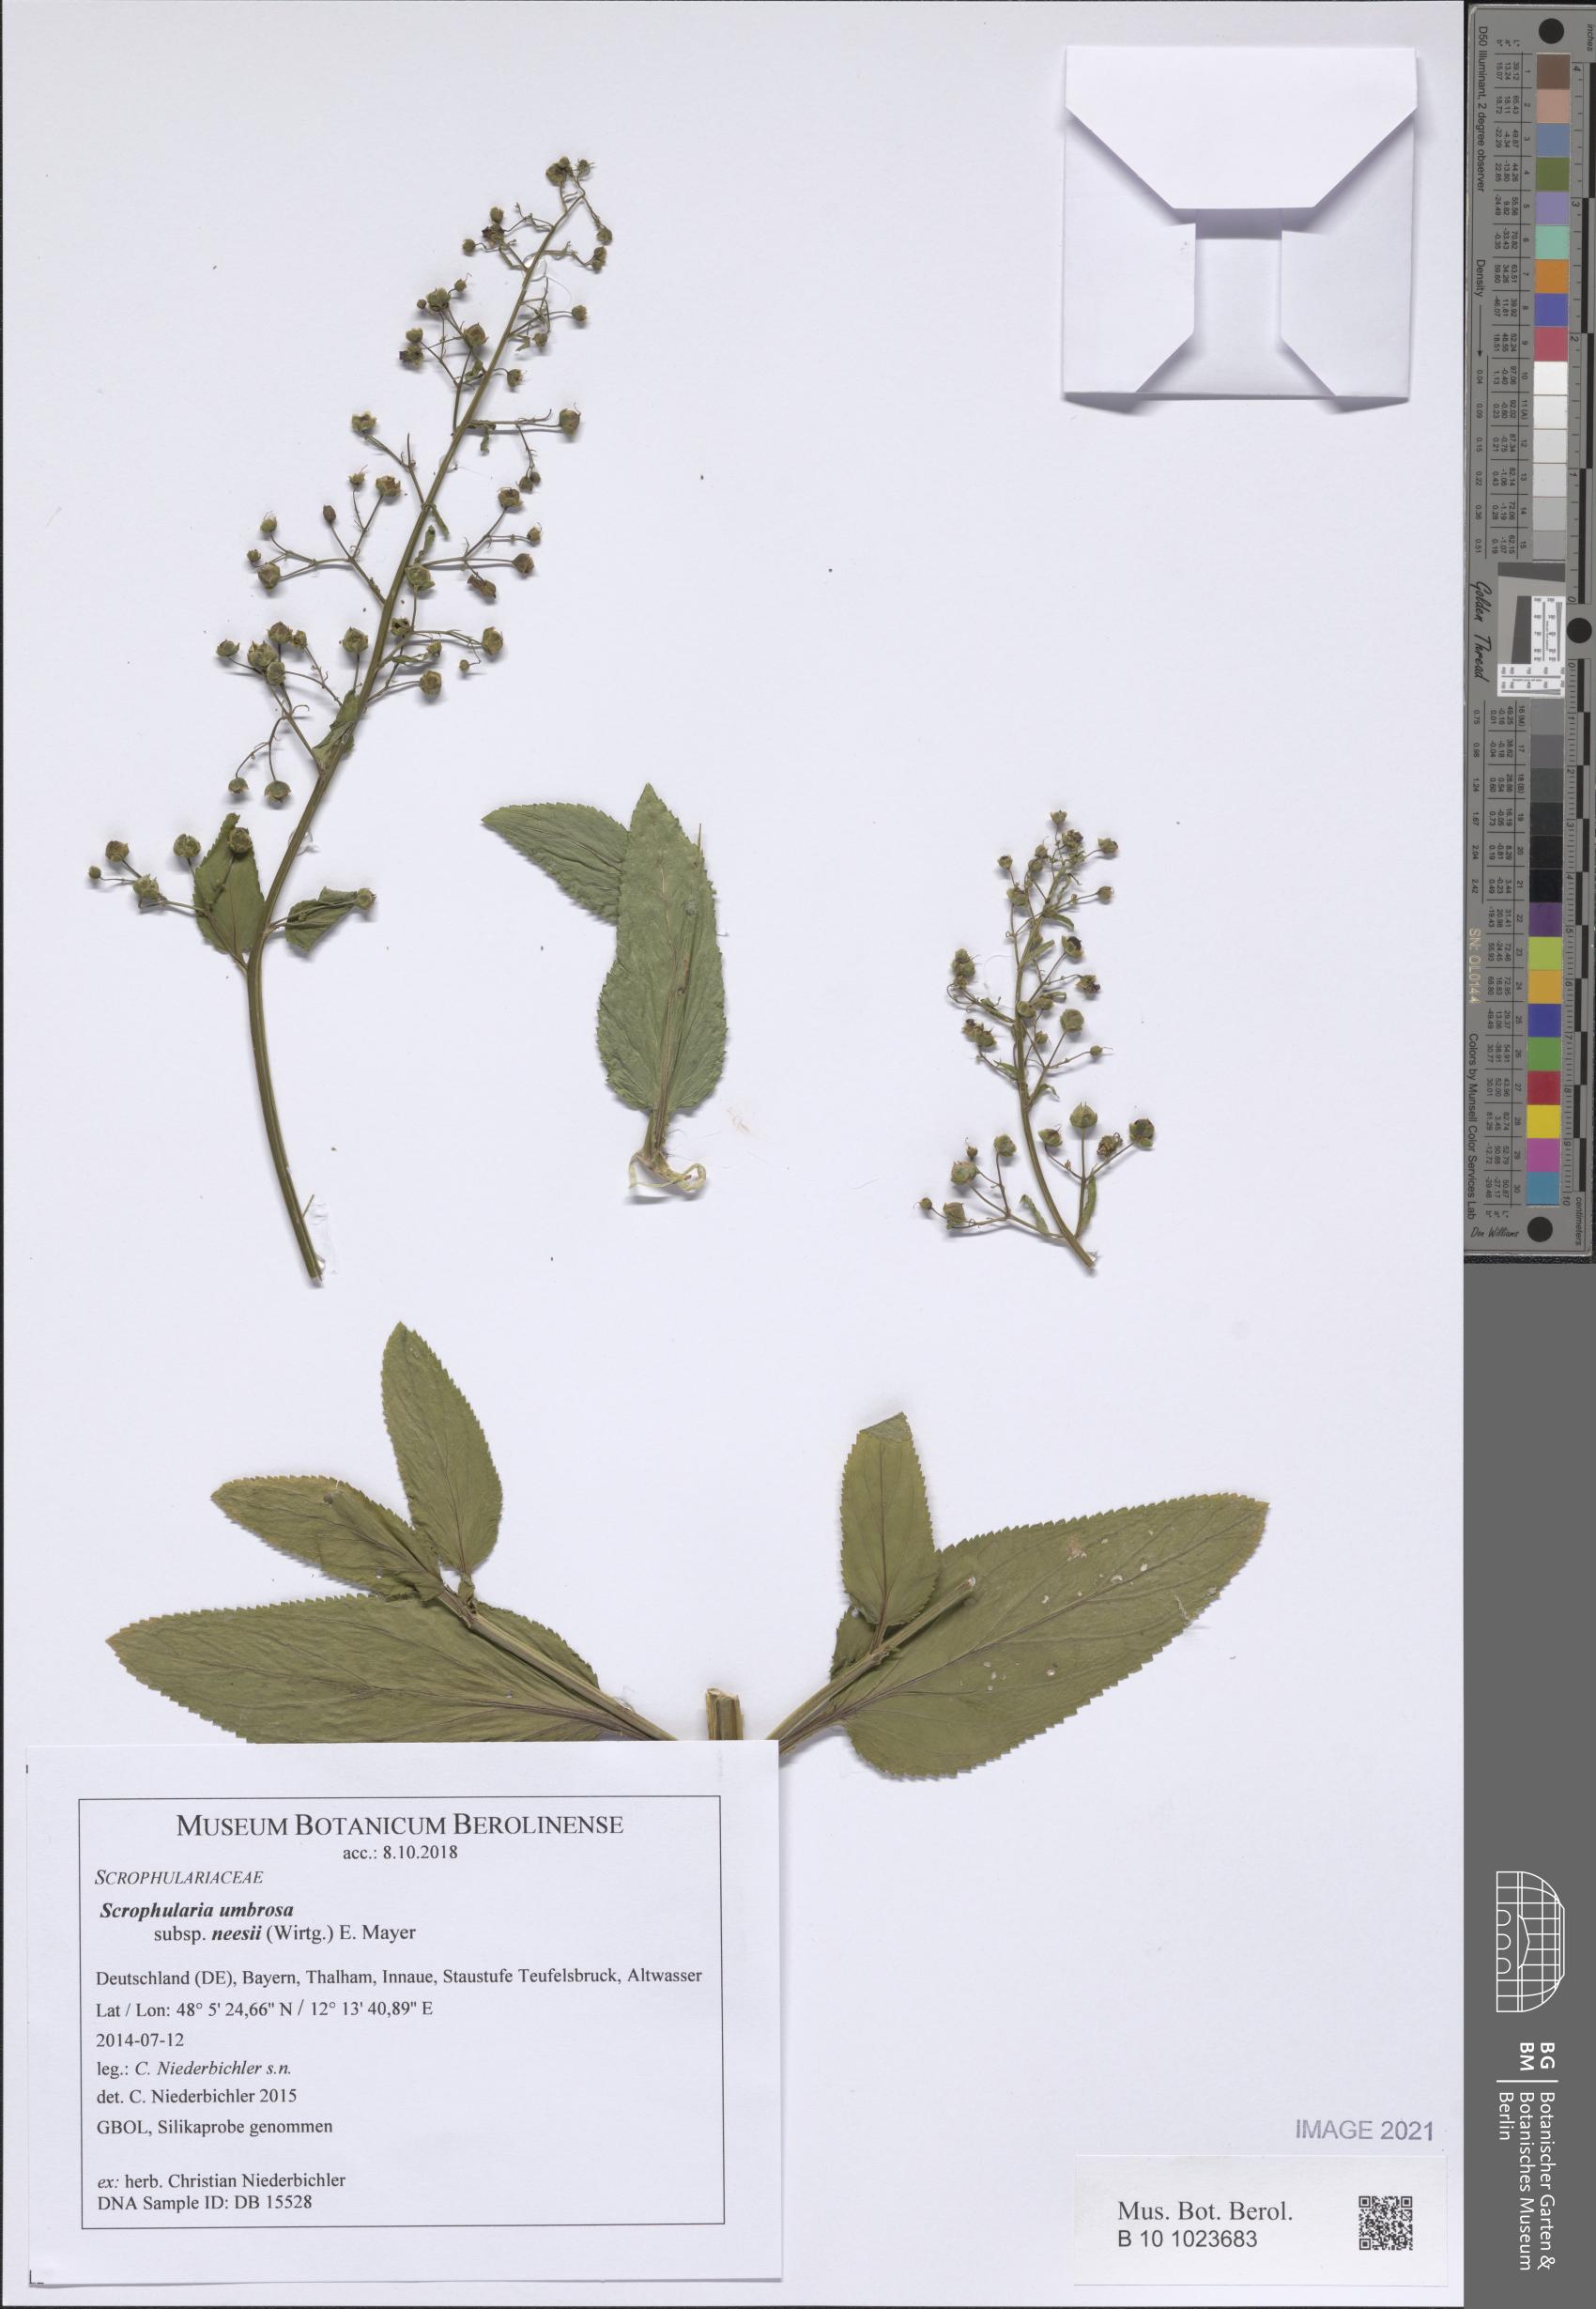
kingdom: Plantae
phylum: Tracheophyta
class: Magnoliopsida
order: Lamiales
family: Scrophulariaceae
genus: Scrophularia
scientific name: Scrophularia neesii
